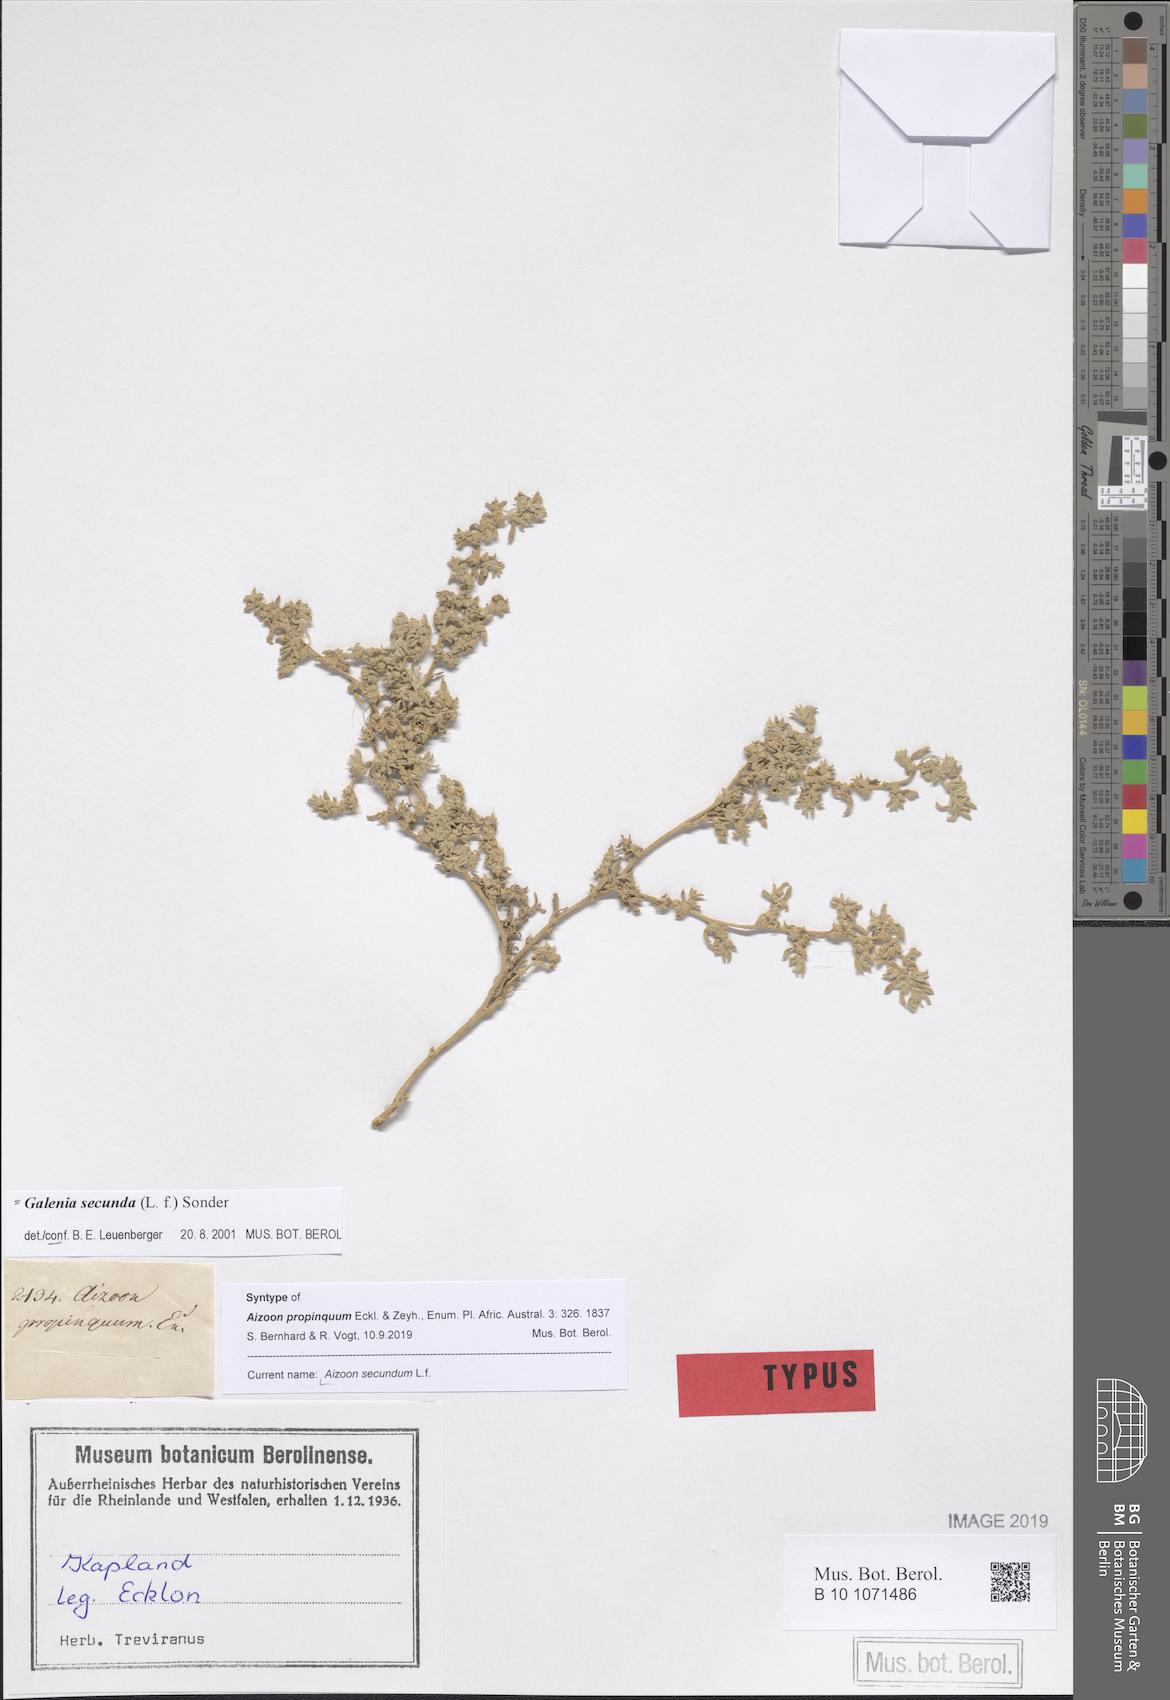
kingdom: Plantae
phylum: Tracheophyta
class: Magnoliopsida
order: Caryophyllales
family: Aizoaceae
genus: Aizoon
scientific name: Aizoon secundum
